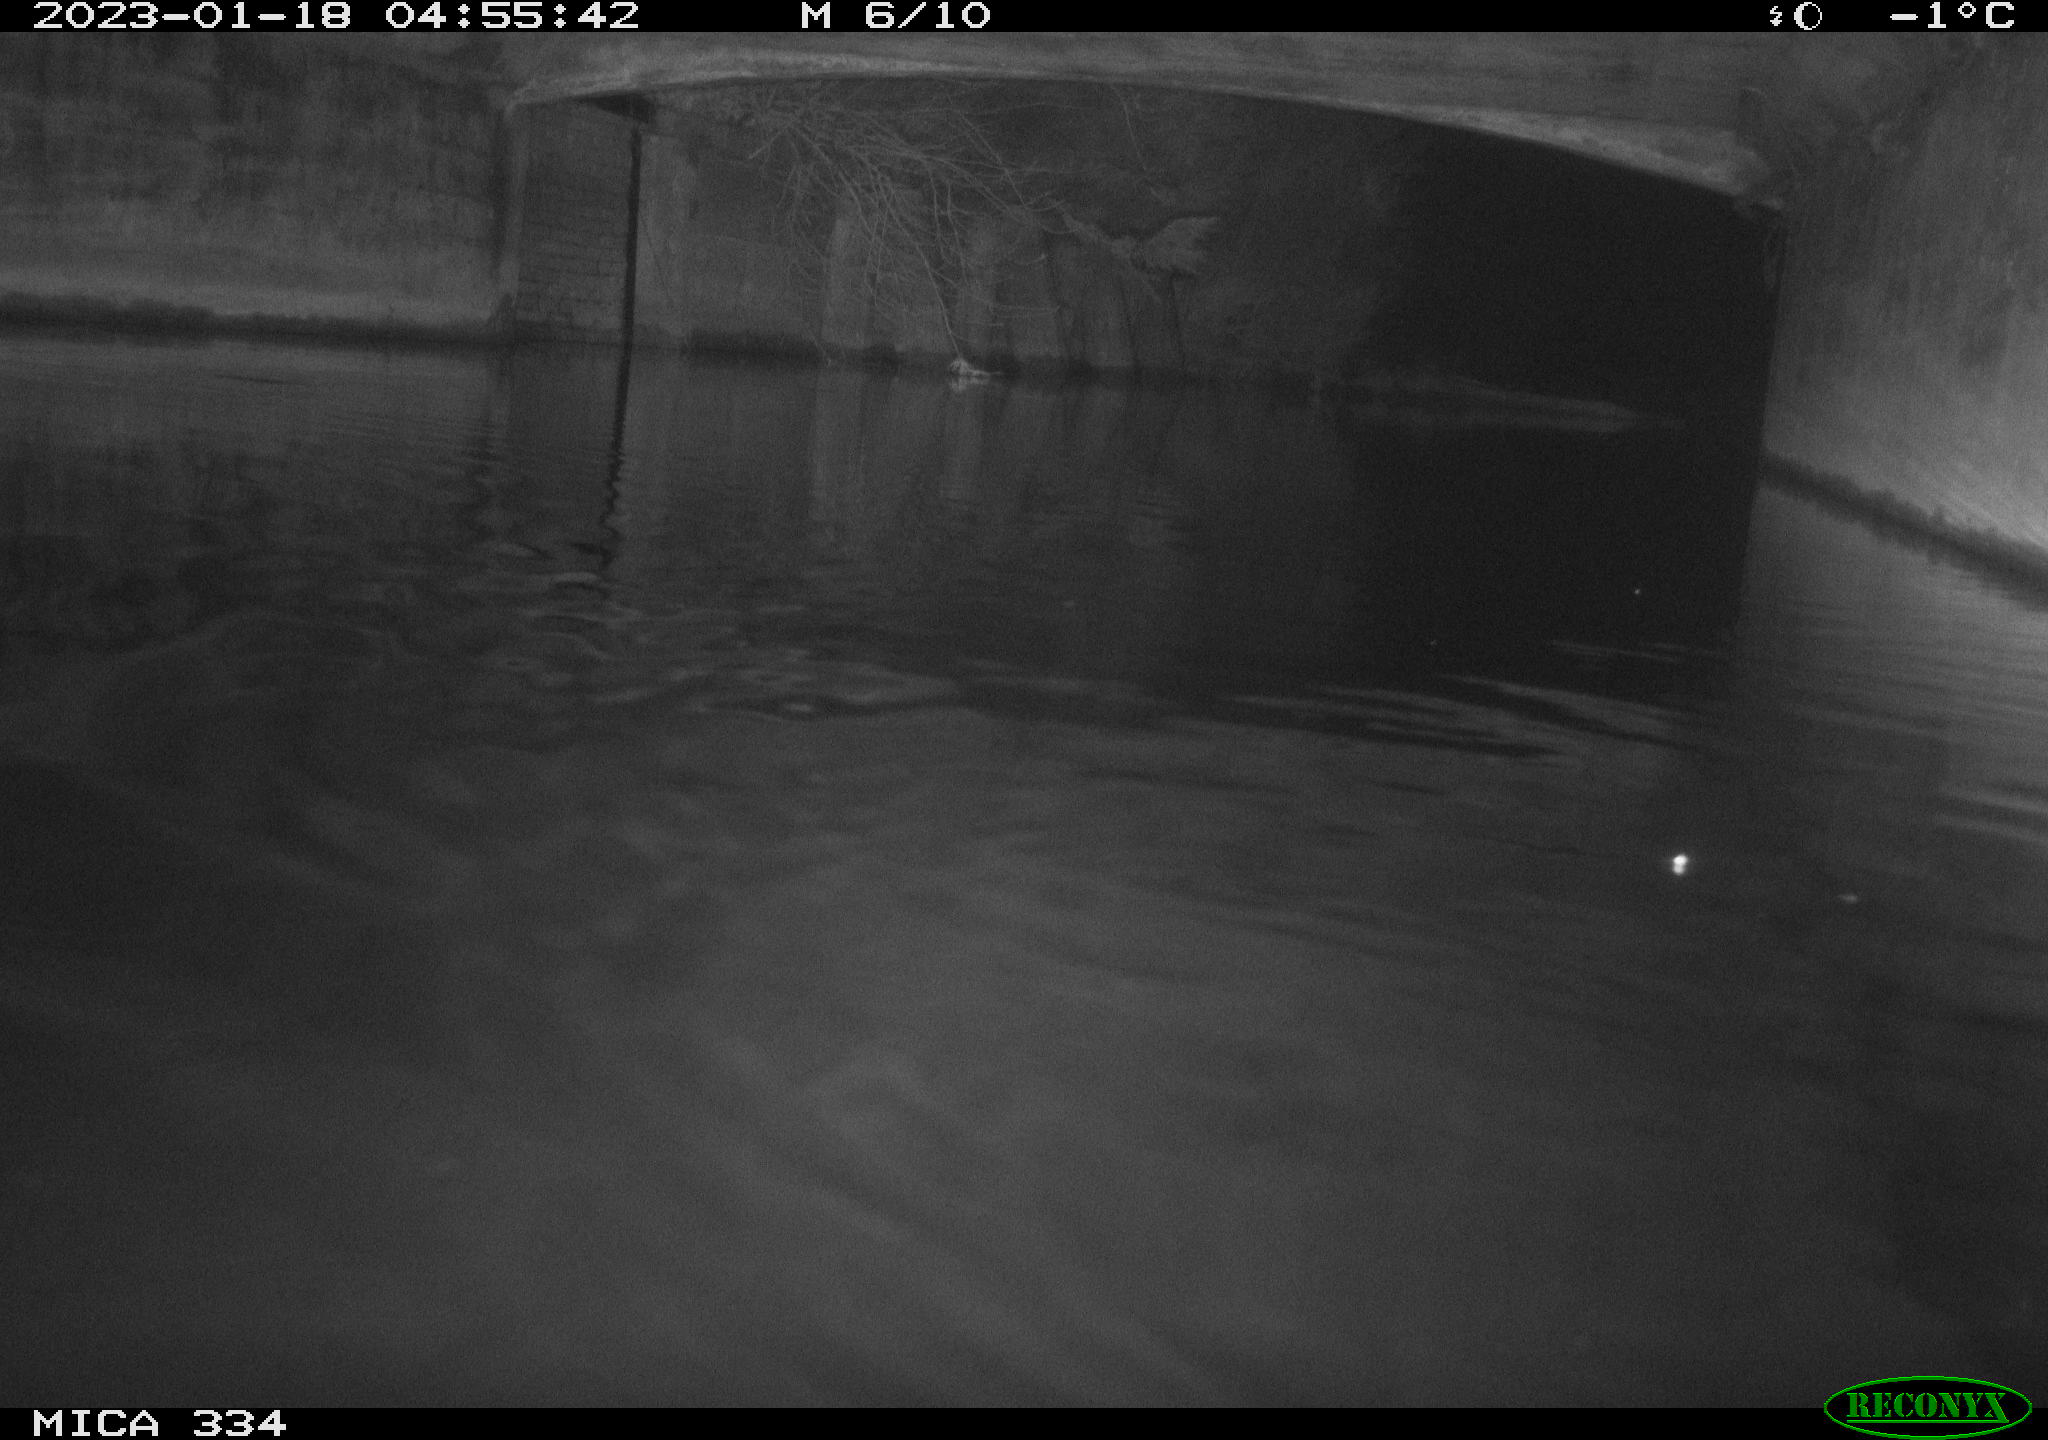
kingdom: Animalia
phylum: Chordata
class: Mammalia
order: Rodentia
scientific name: Rodentia
